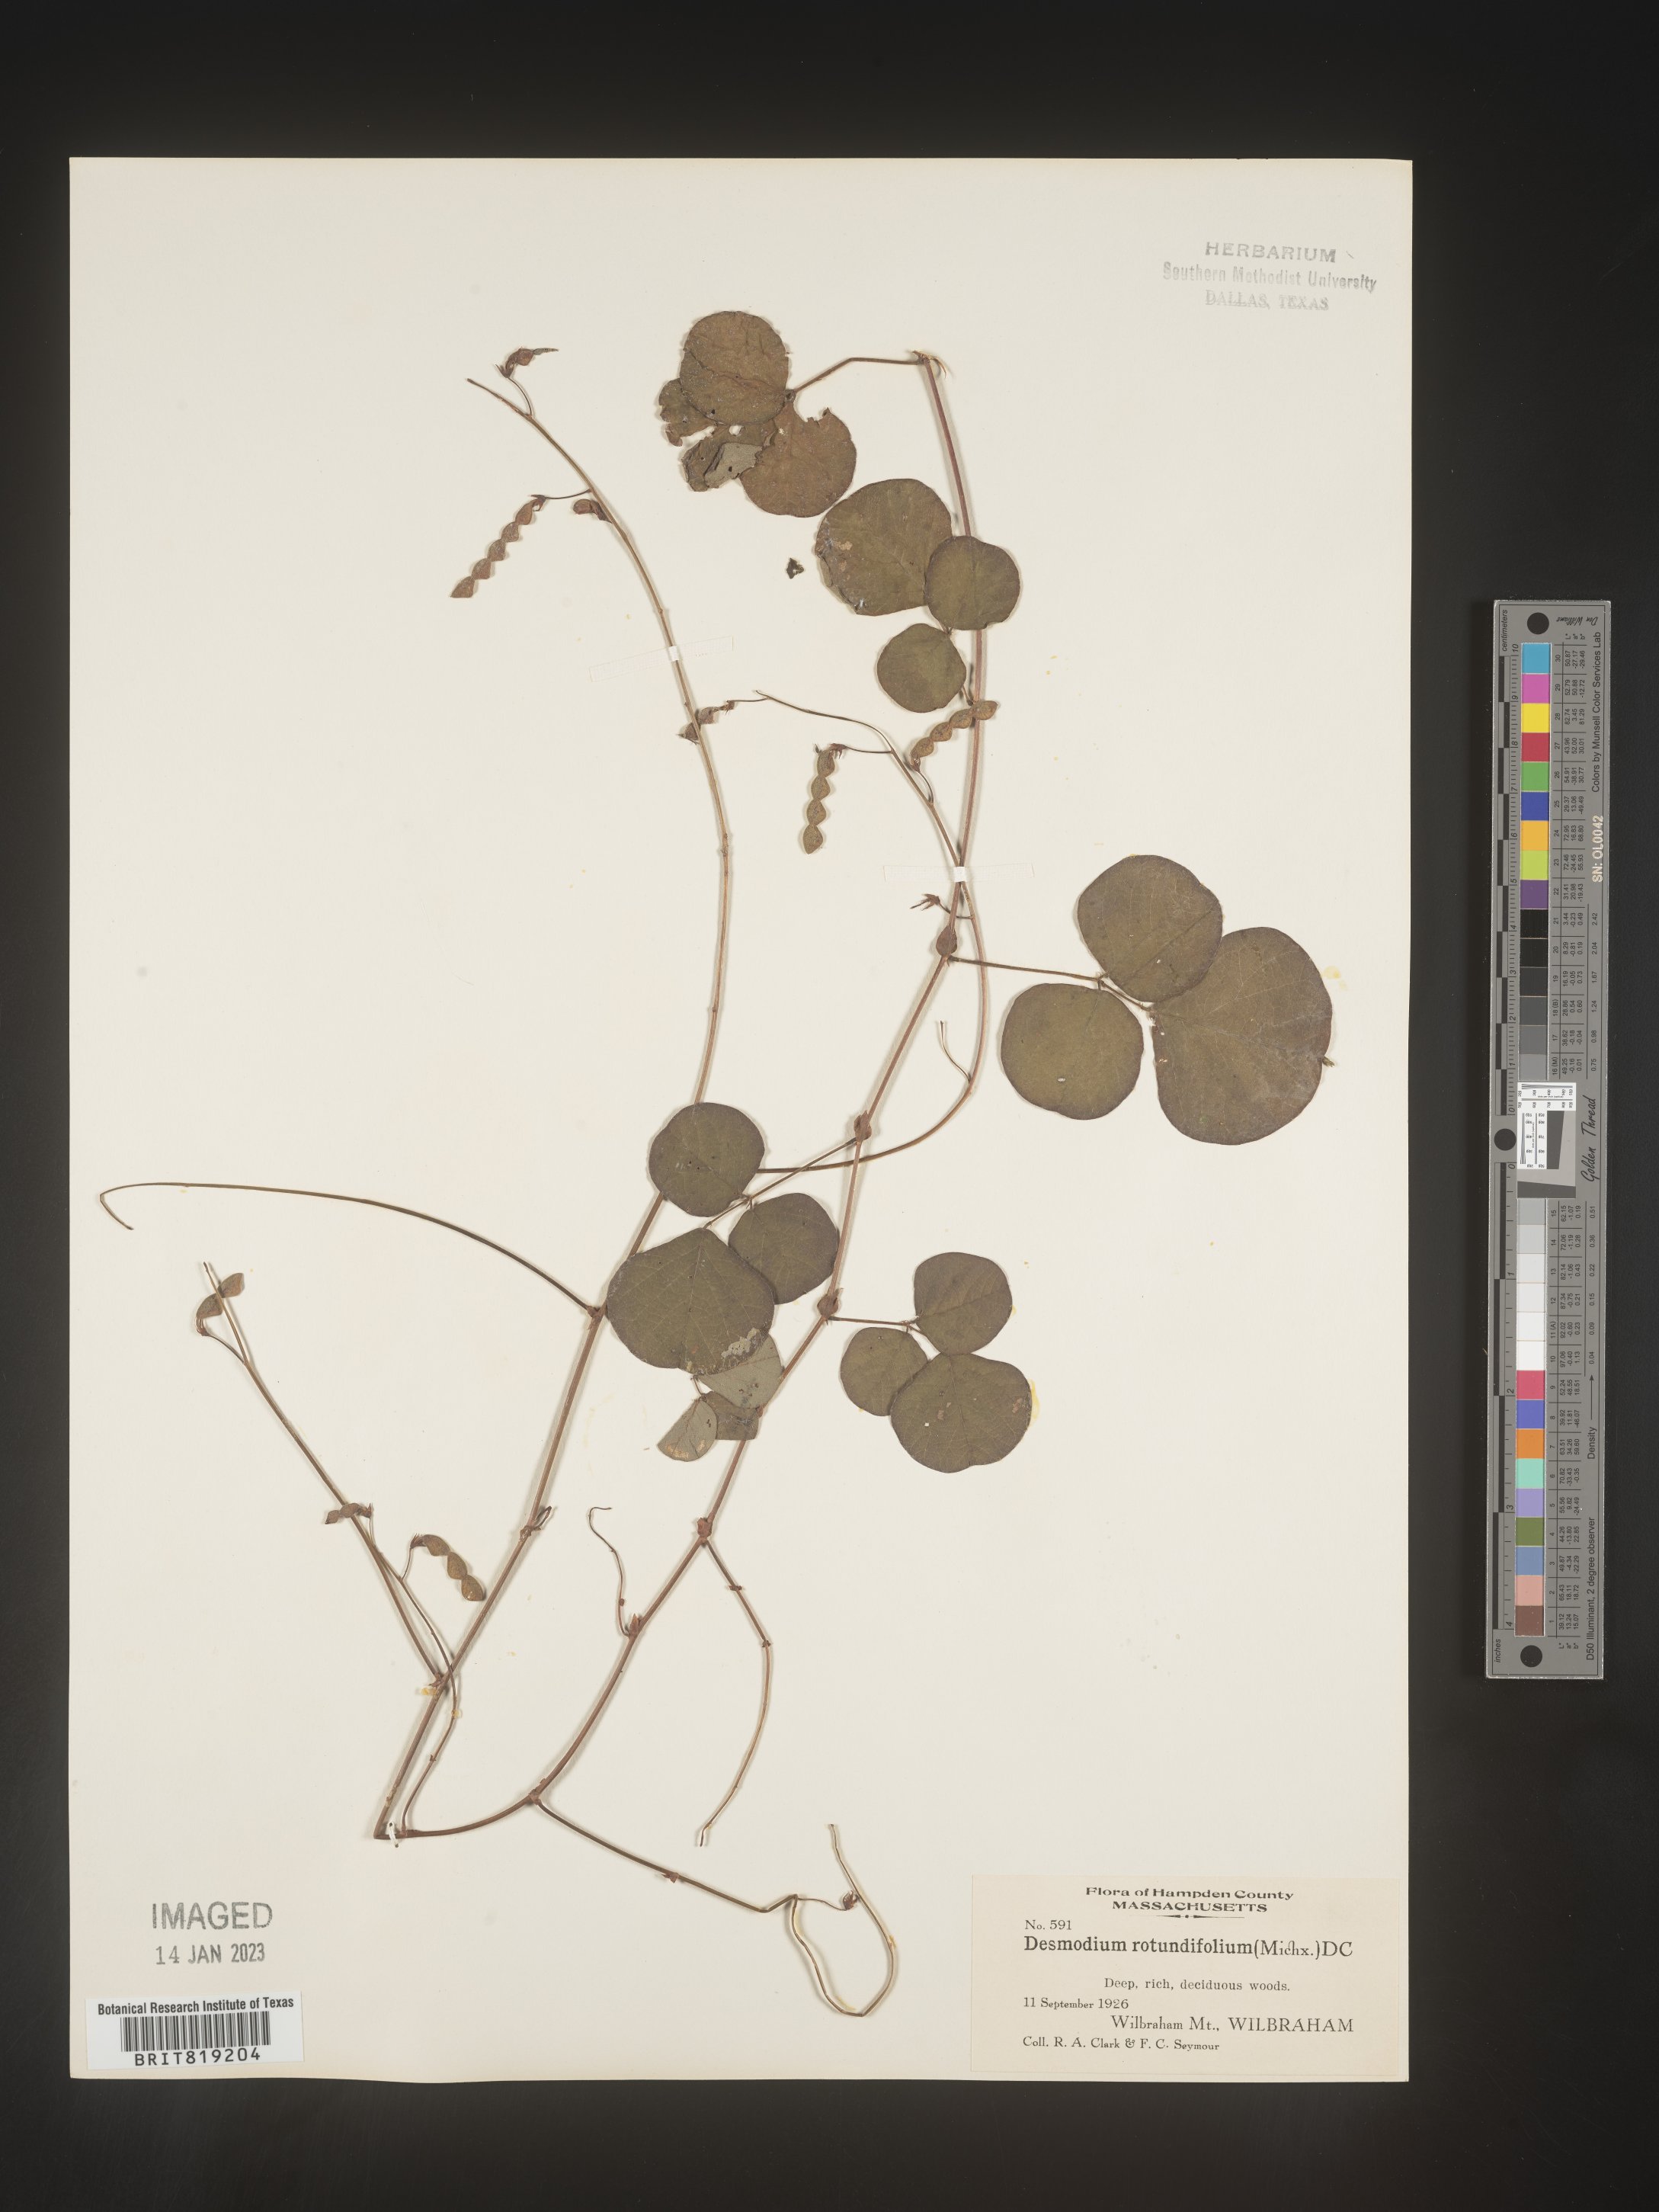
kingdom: Plantae
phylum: Tracheophyta
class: Magnoliopsida
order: Fabales
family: Fabaceae
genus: Desmodium
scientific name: Desmodium rotundifolium
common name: Dollarleaf
